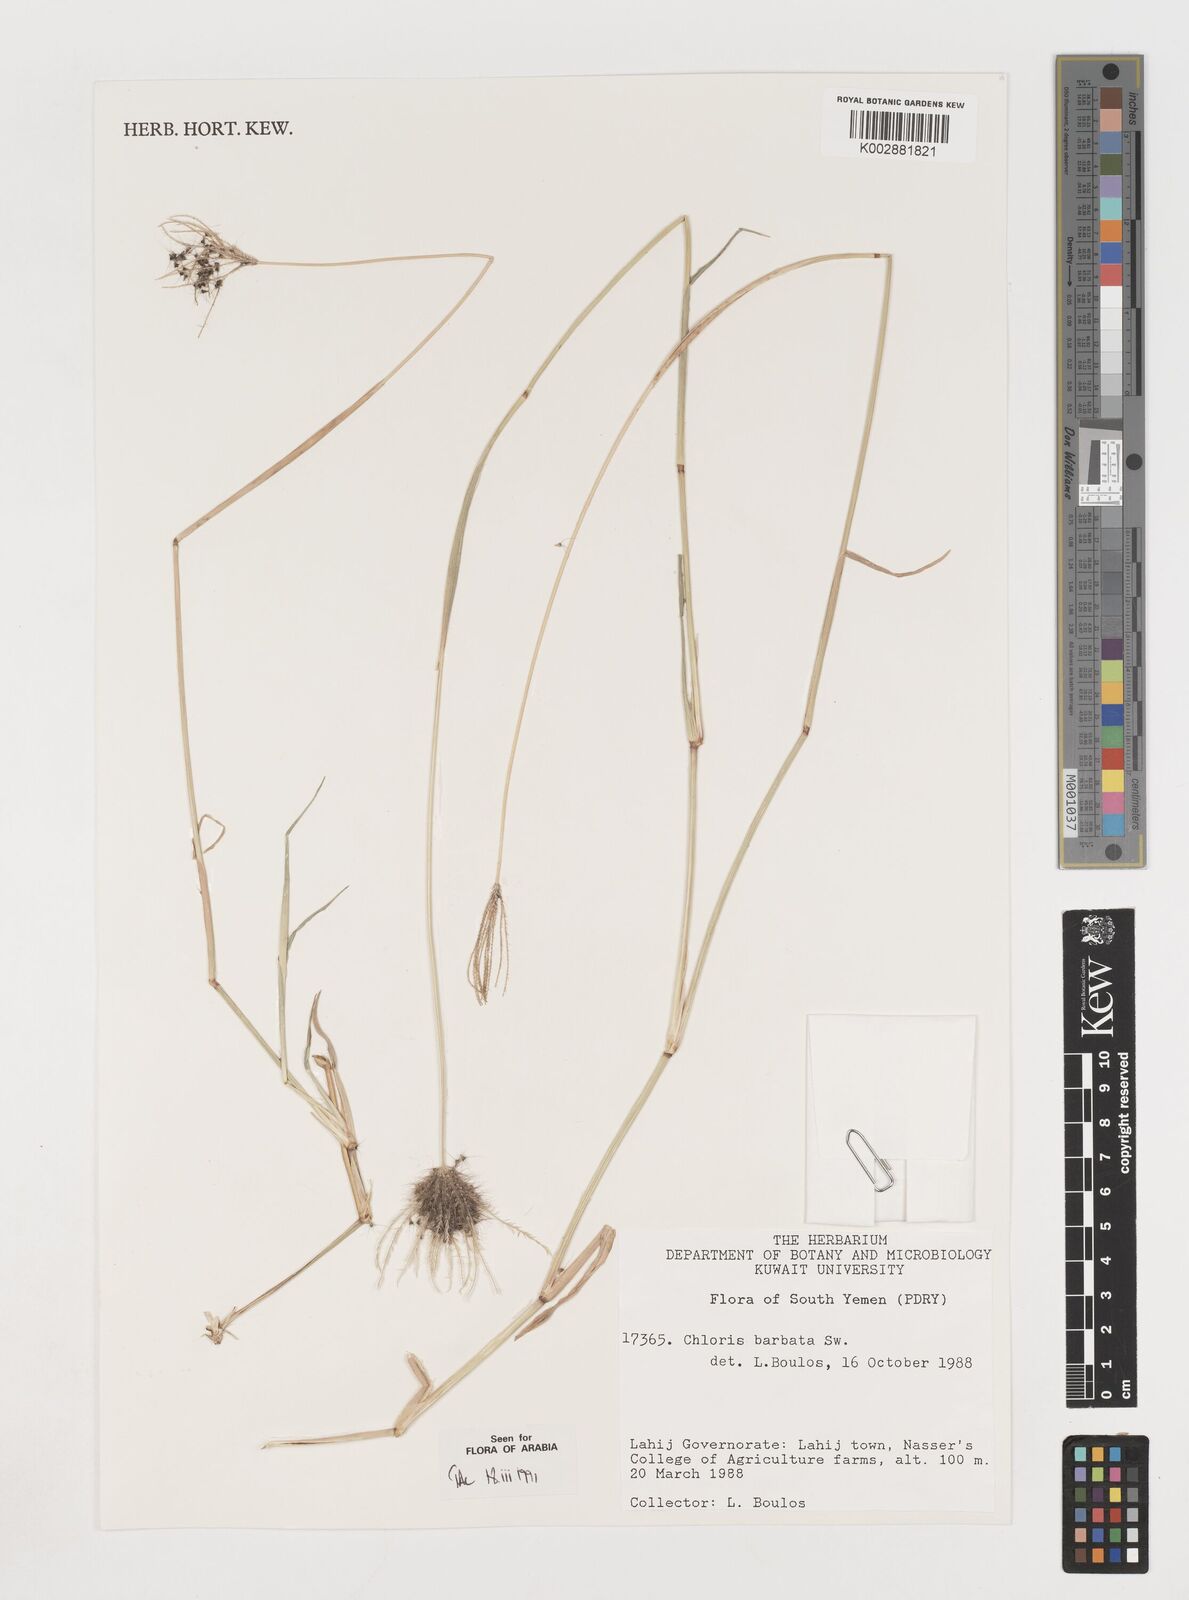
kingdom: Plantae
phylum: Tracheophyta
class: Liliopsida
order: Poales
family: Poaceae
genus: Chloris
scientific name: Chloris
